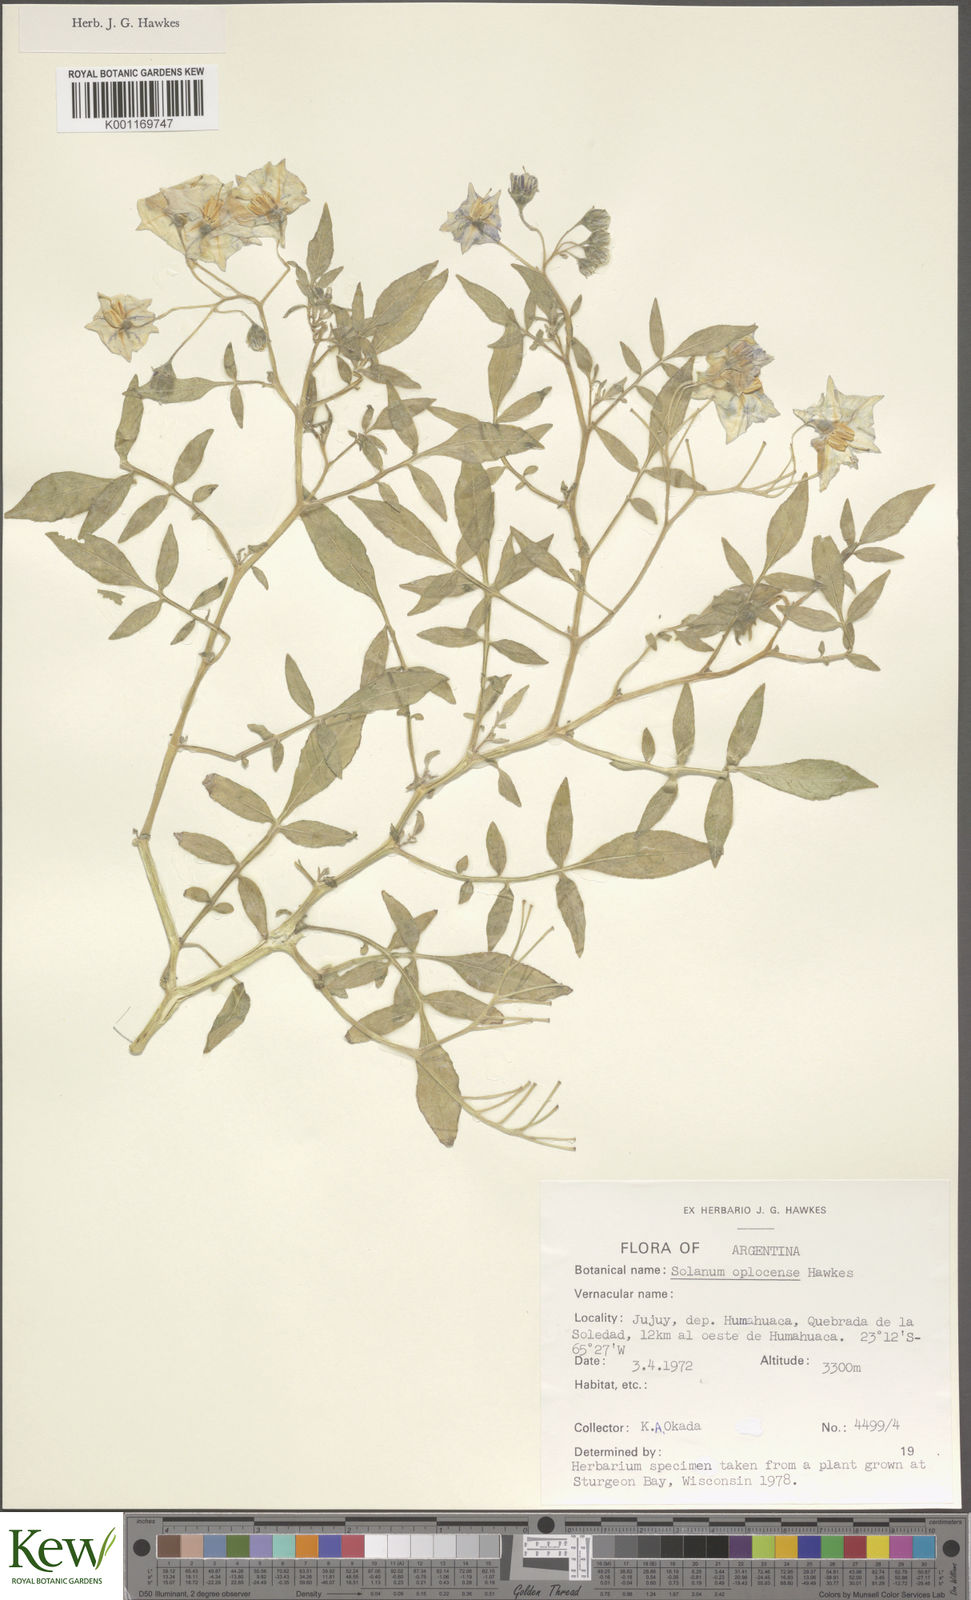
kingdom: Plantae
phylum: Tracheophyta
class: Magnoliopsida
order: Solanales
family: Solanaceae
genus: Solanum
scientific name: Solanum brevicaule
